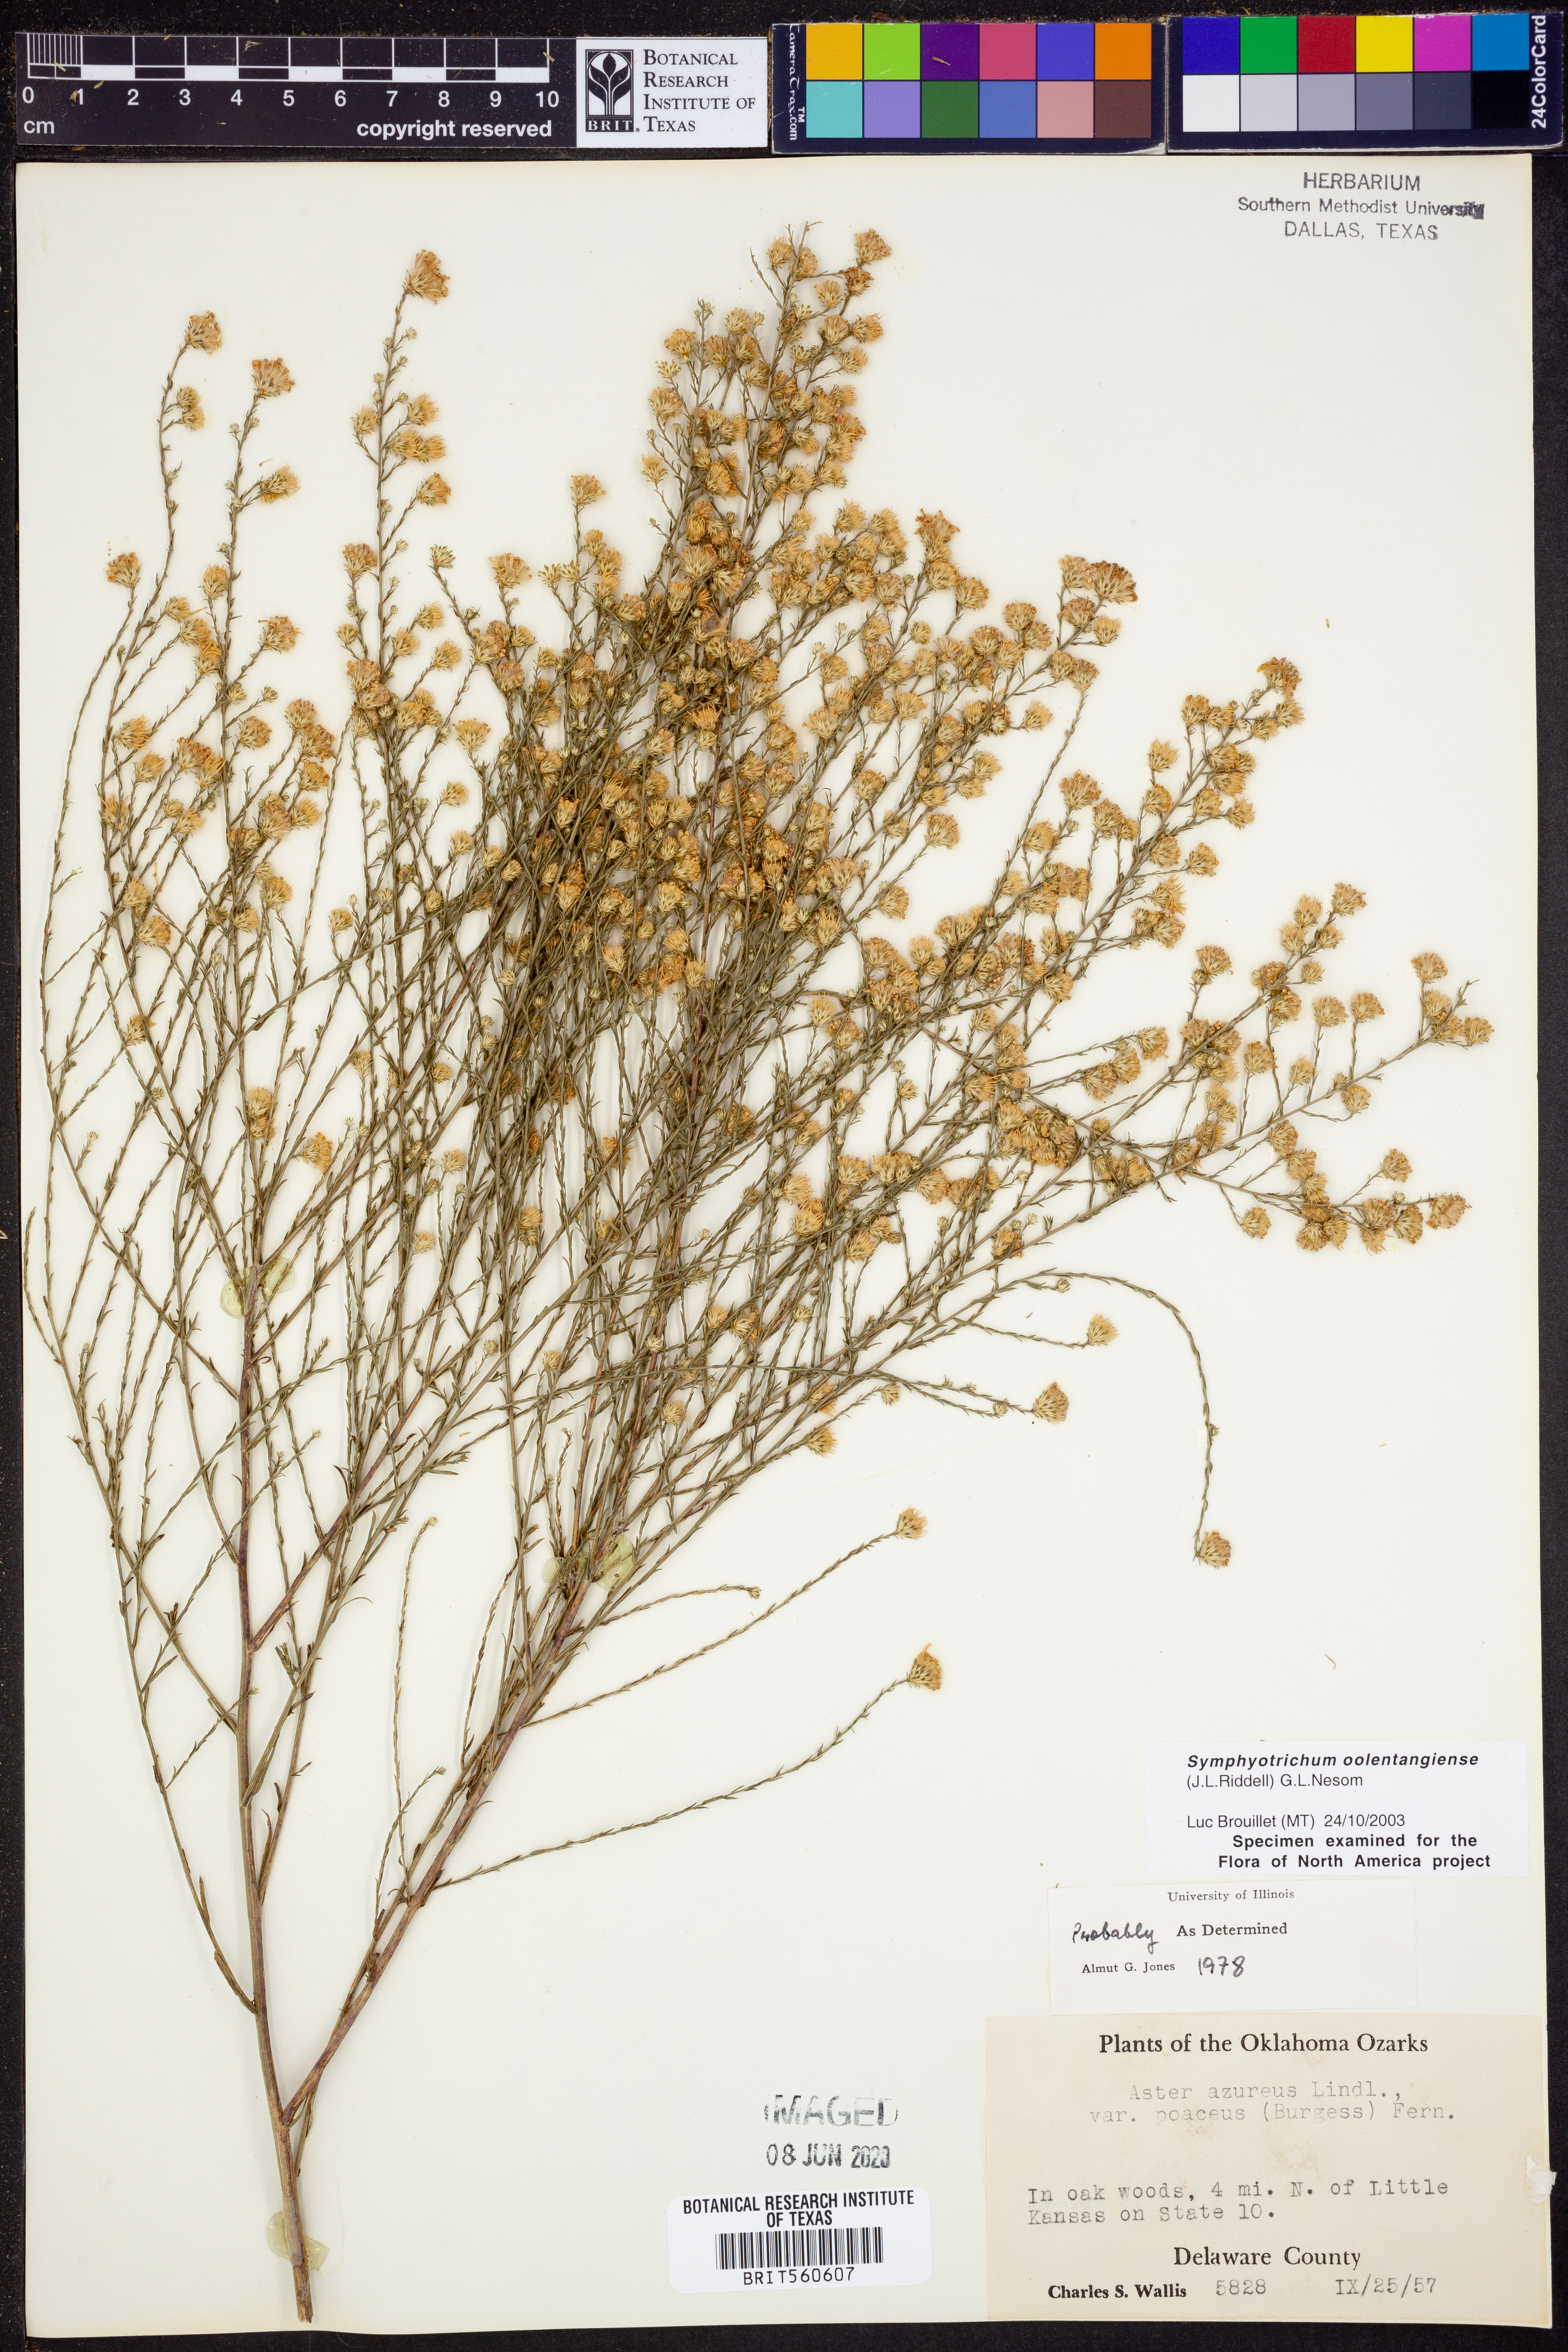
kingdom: Plantae
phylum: Tracheophyta
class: Magnoliopsida
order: Asterales
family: Asteraceae
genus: Symphyotrichum
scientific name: Symphyotrichum oolentangiense
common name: Azure aster
